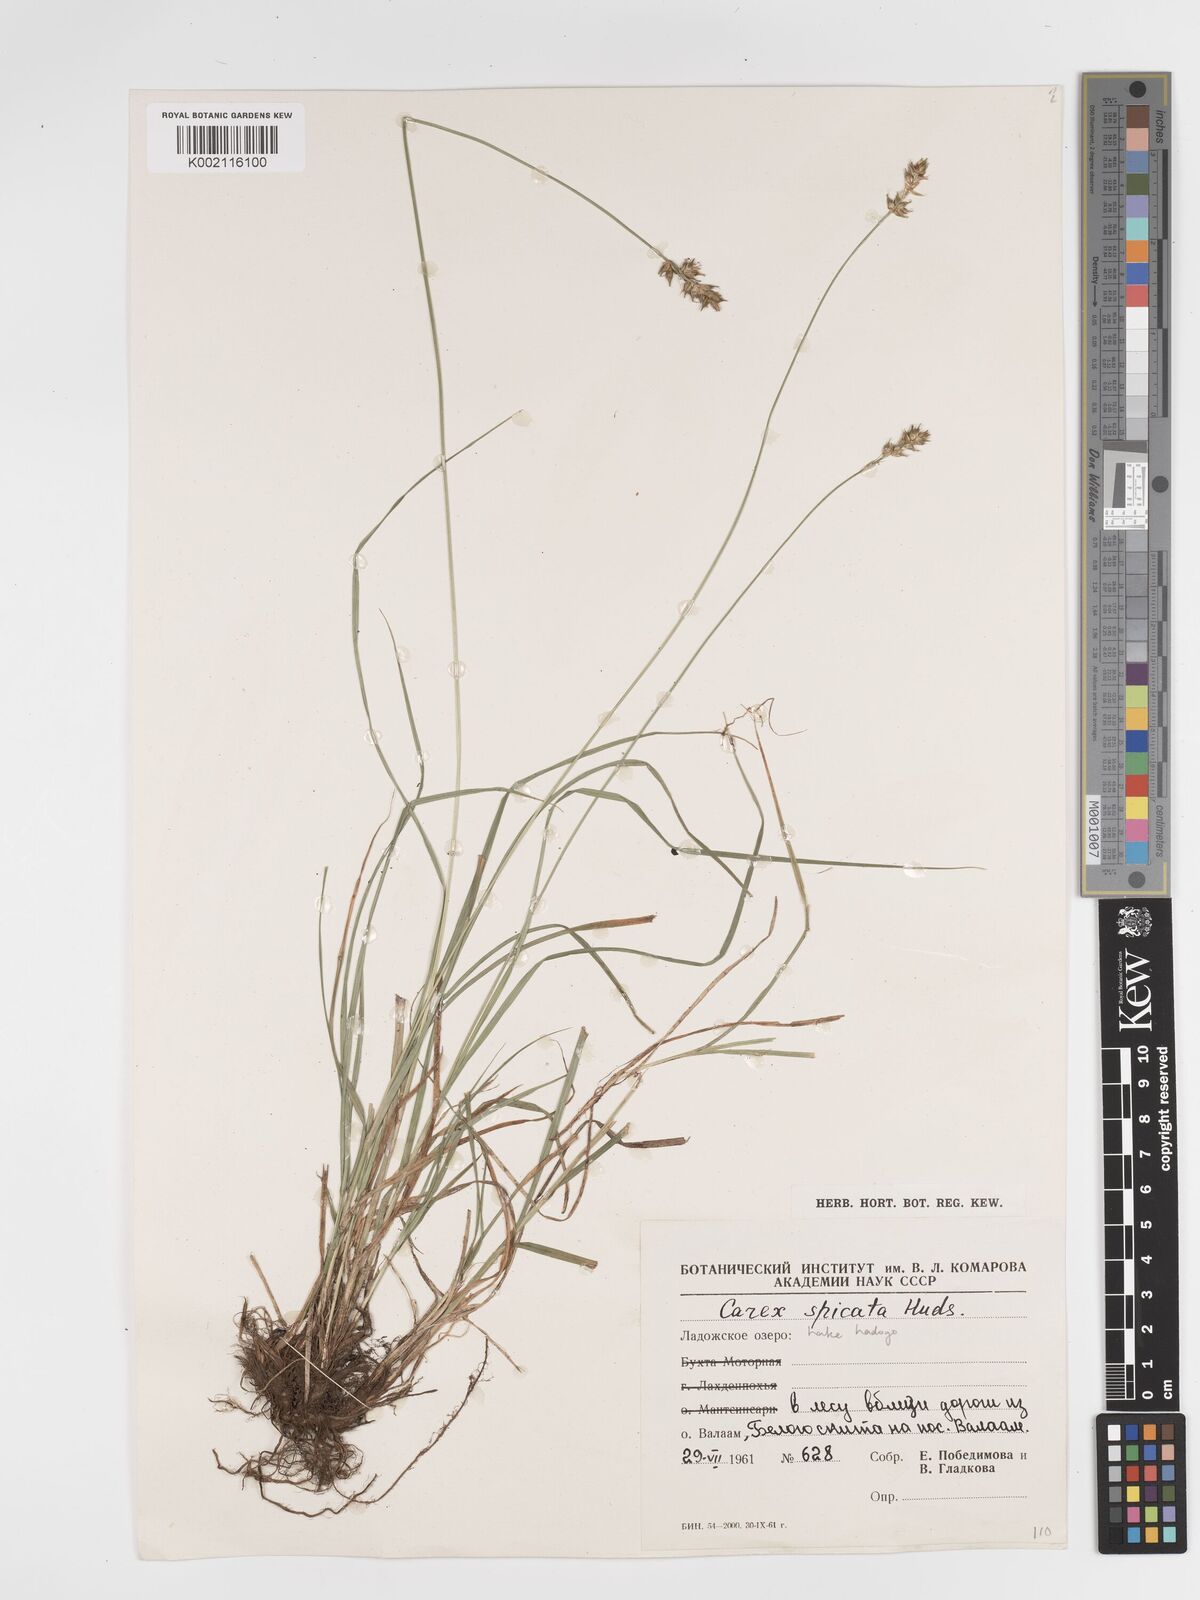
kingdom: Plantae
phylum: Tracheophyta
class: Liliopsida
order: Poales
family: Cyperaceae
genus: Carex
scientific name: Carex spicata
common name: Spiked sedge
